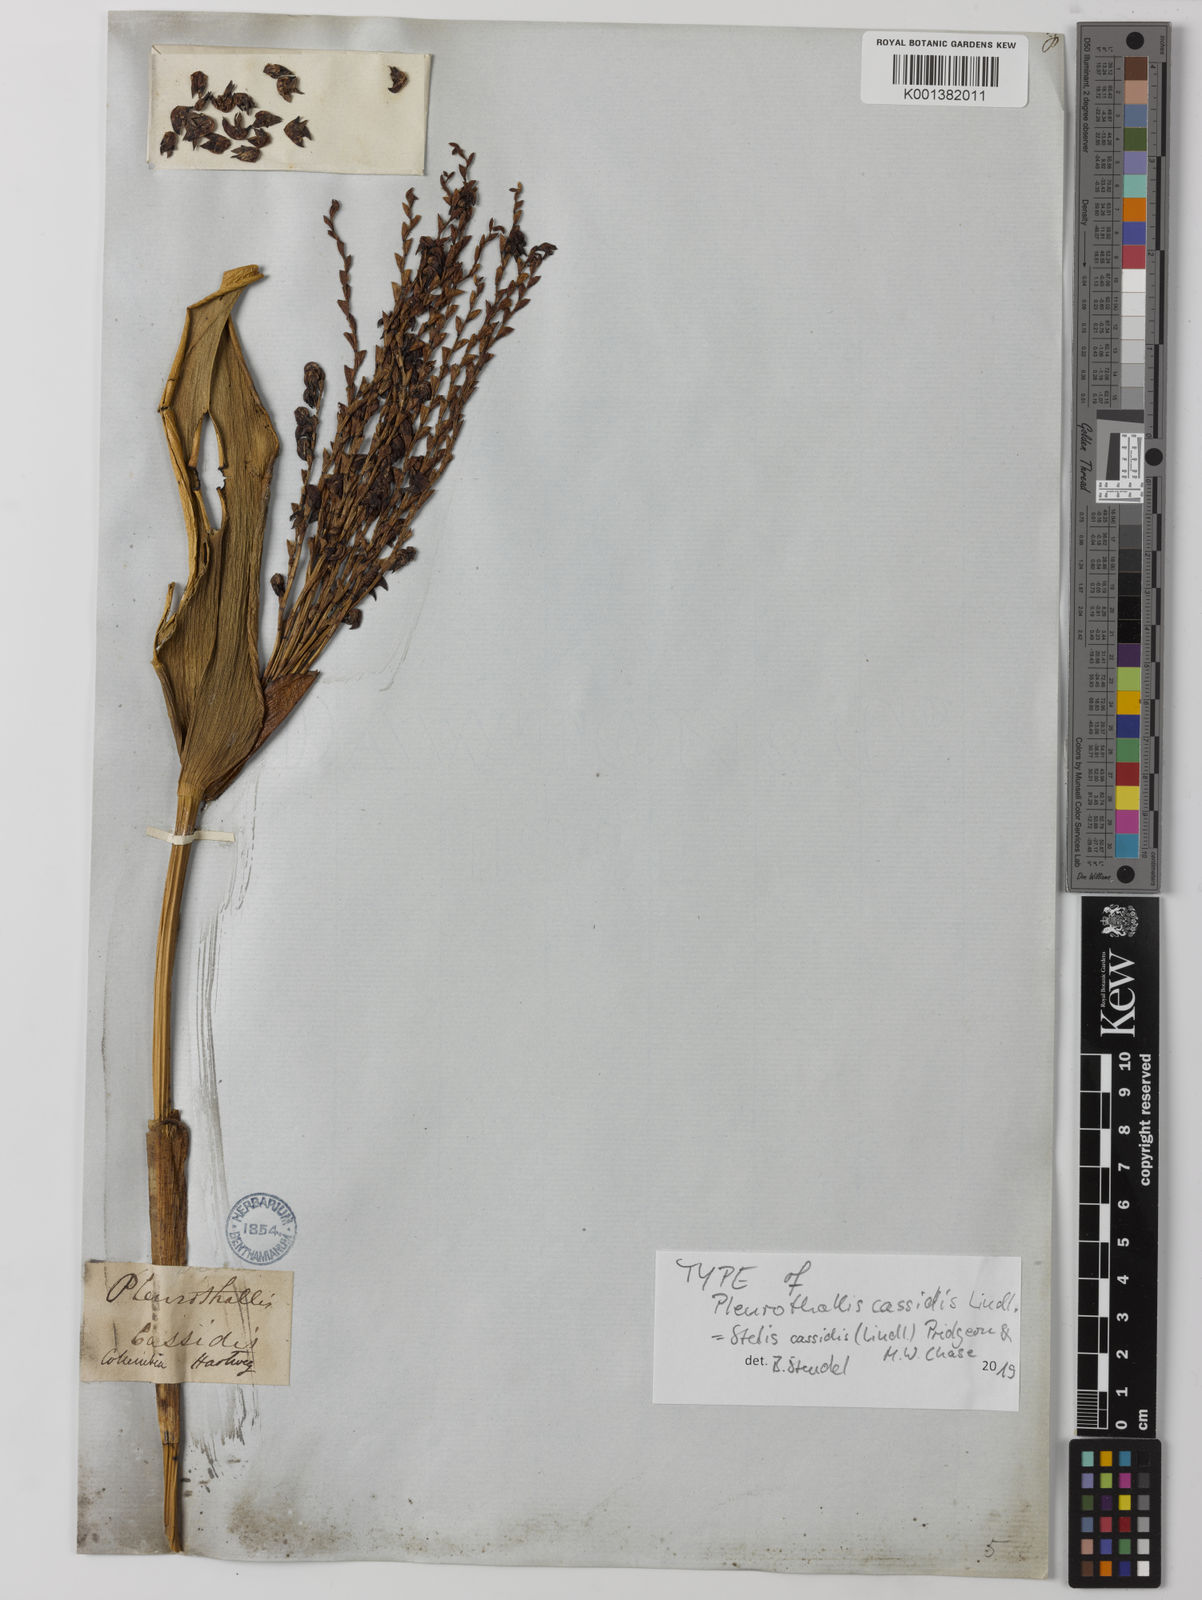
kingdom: Plantae
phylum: Tracheophyta
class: Liliopsida
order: Asparagales
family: Orchidaceae
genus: Stelis
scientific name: Stelis cassidis
